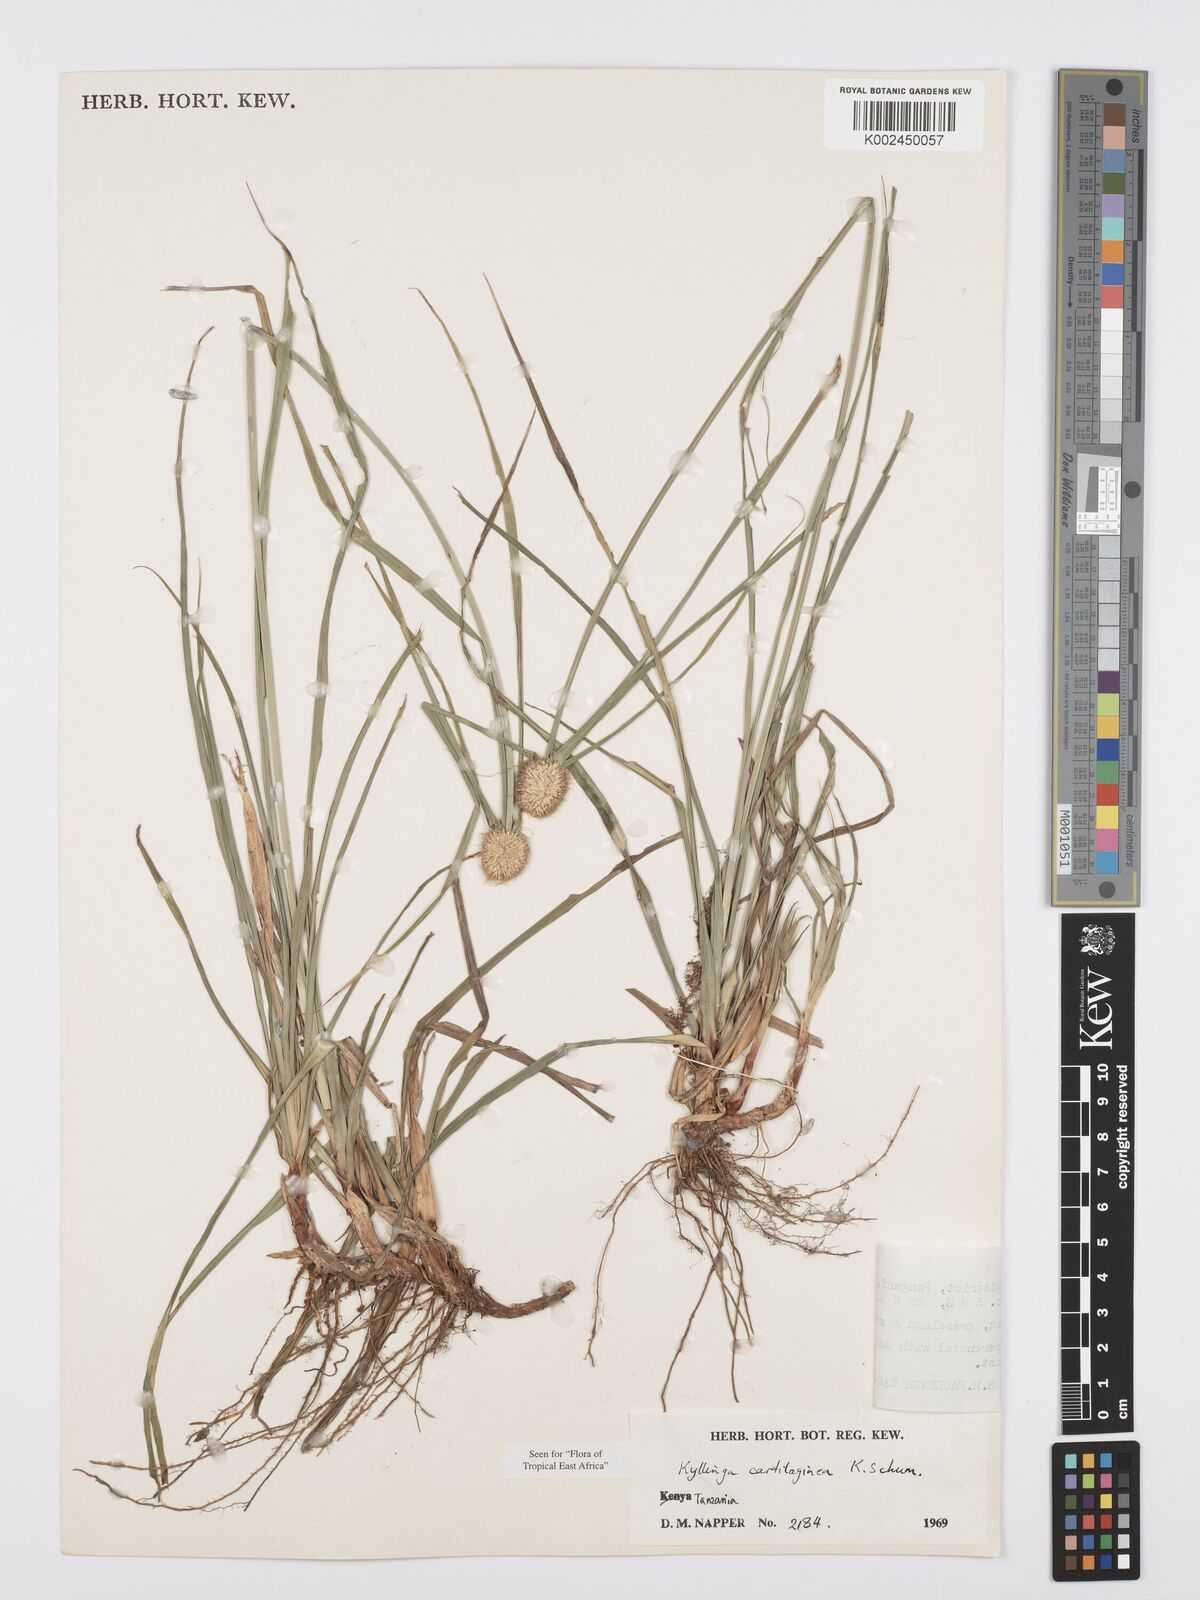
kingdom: Plantae
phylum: Tracheophyta
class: Liliopsida
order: Poales
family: Cyperaceae
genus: Cyperus
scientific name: Cyperus cartilagineus
